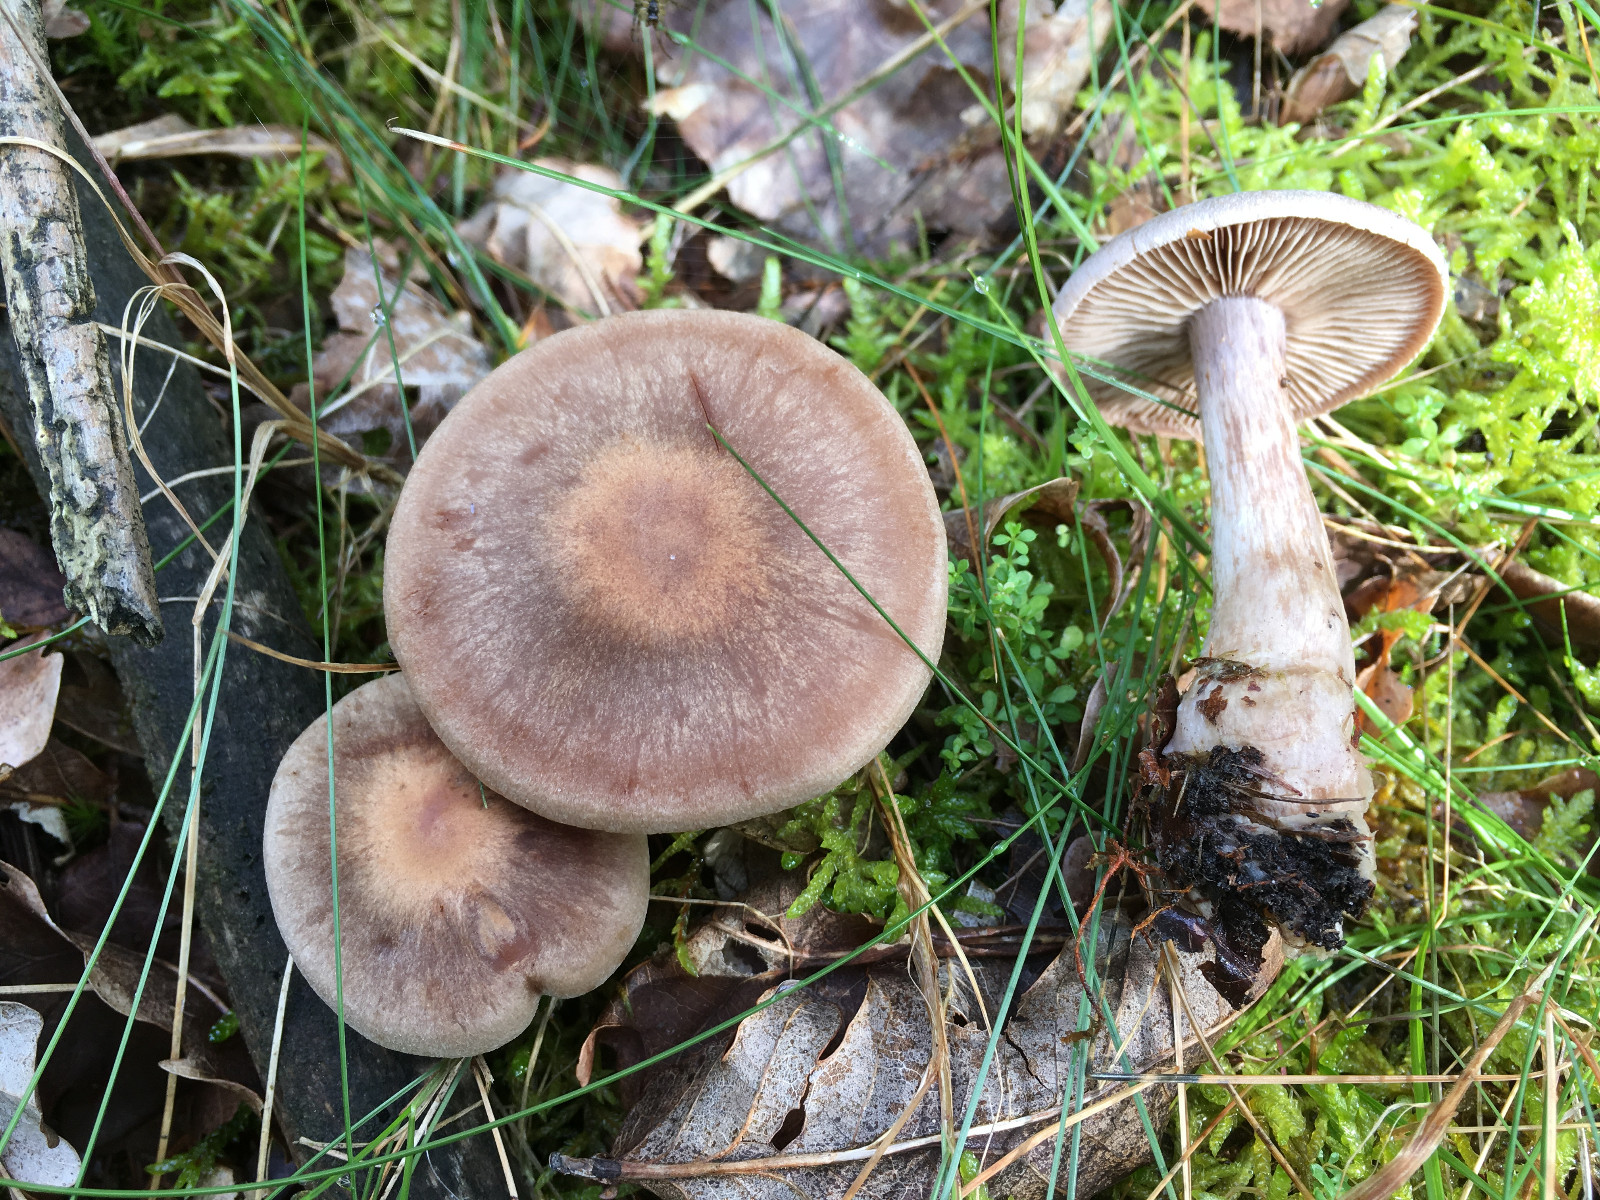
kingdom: Fungi
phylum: Basidiomycota
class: Agaricomycetes
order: Agaricales
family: Cortinariaceae
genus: Cortinarius
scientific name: Cortinarius
